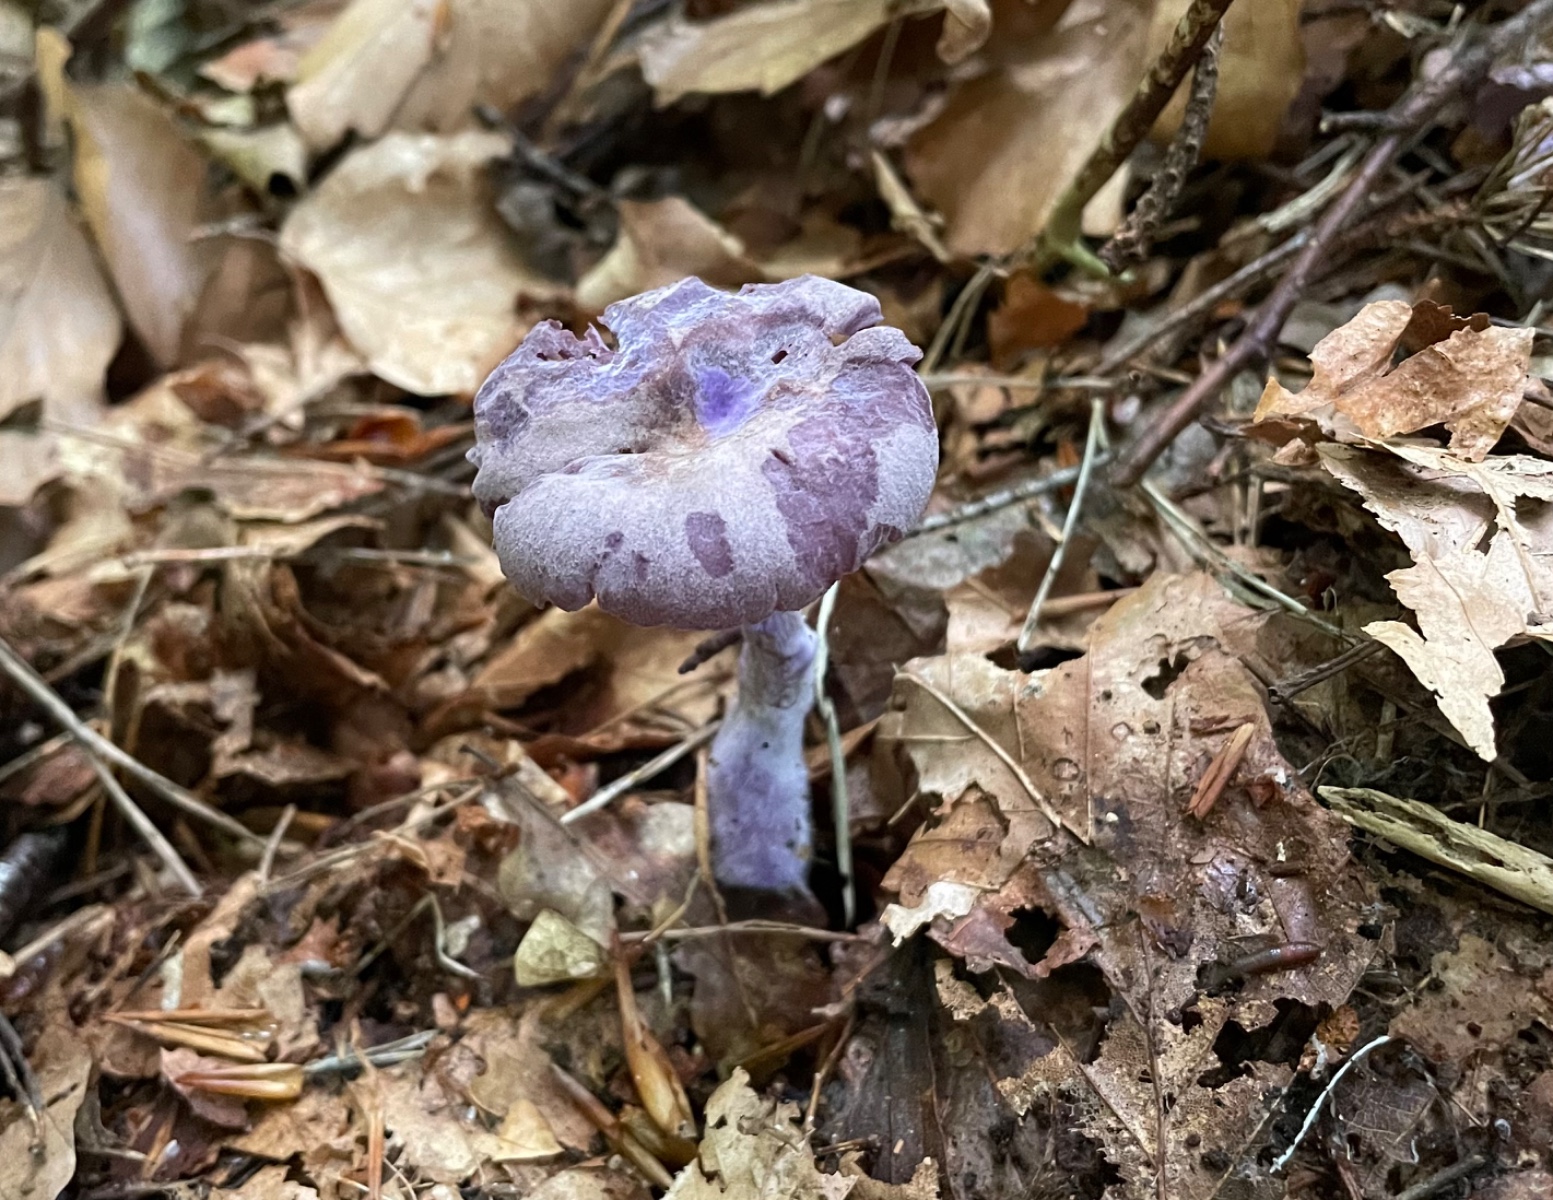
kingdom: Fungi
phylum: Basidiomycota
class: Agaricomycetes
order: Agaricales
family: Hydnangiaceae
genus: Laccaria
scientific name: Laccaria amethystina
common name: violet ametysthat
